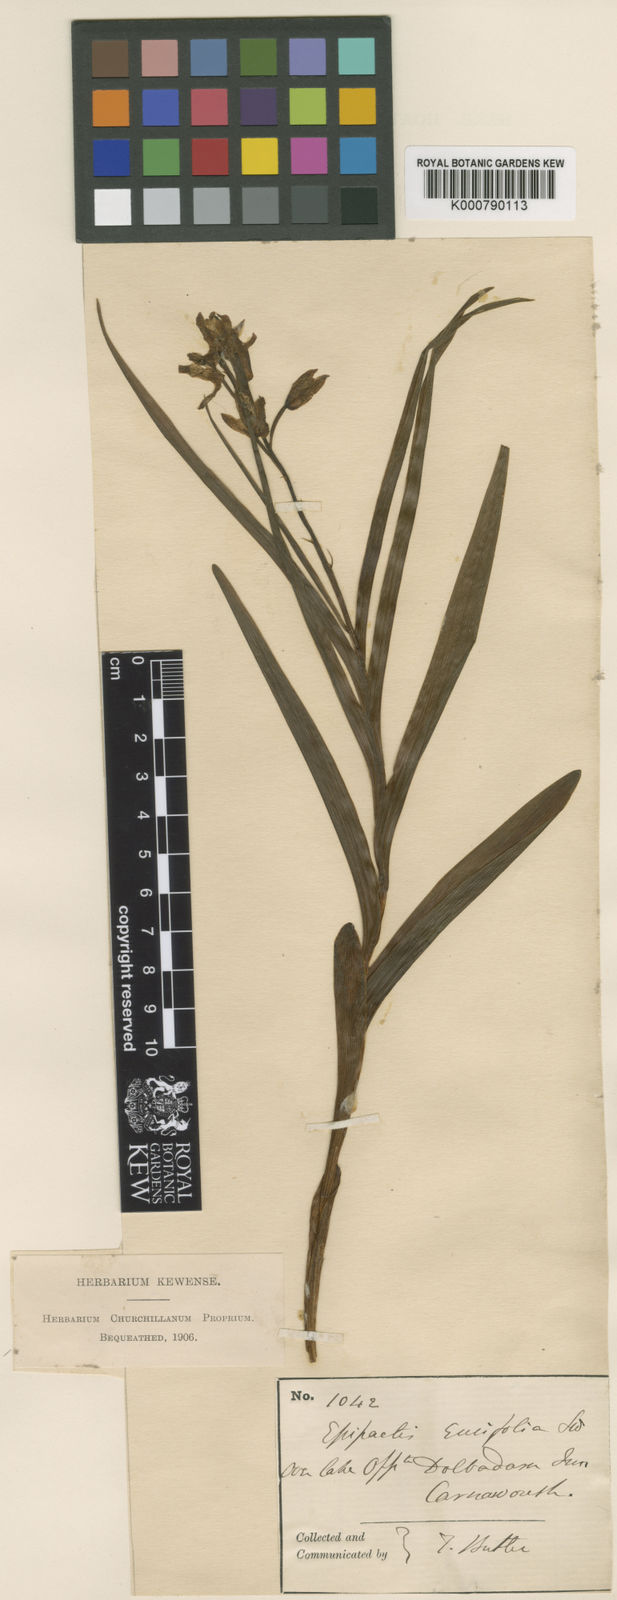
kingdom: Plantae
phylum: Tracheophyta
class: Liliopsida
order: Asparagales
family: Orchidaceae
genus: Cephalanthera
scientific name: Cephalanthera longifolia
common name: Narrow-leaved helleborine
